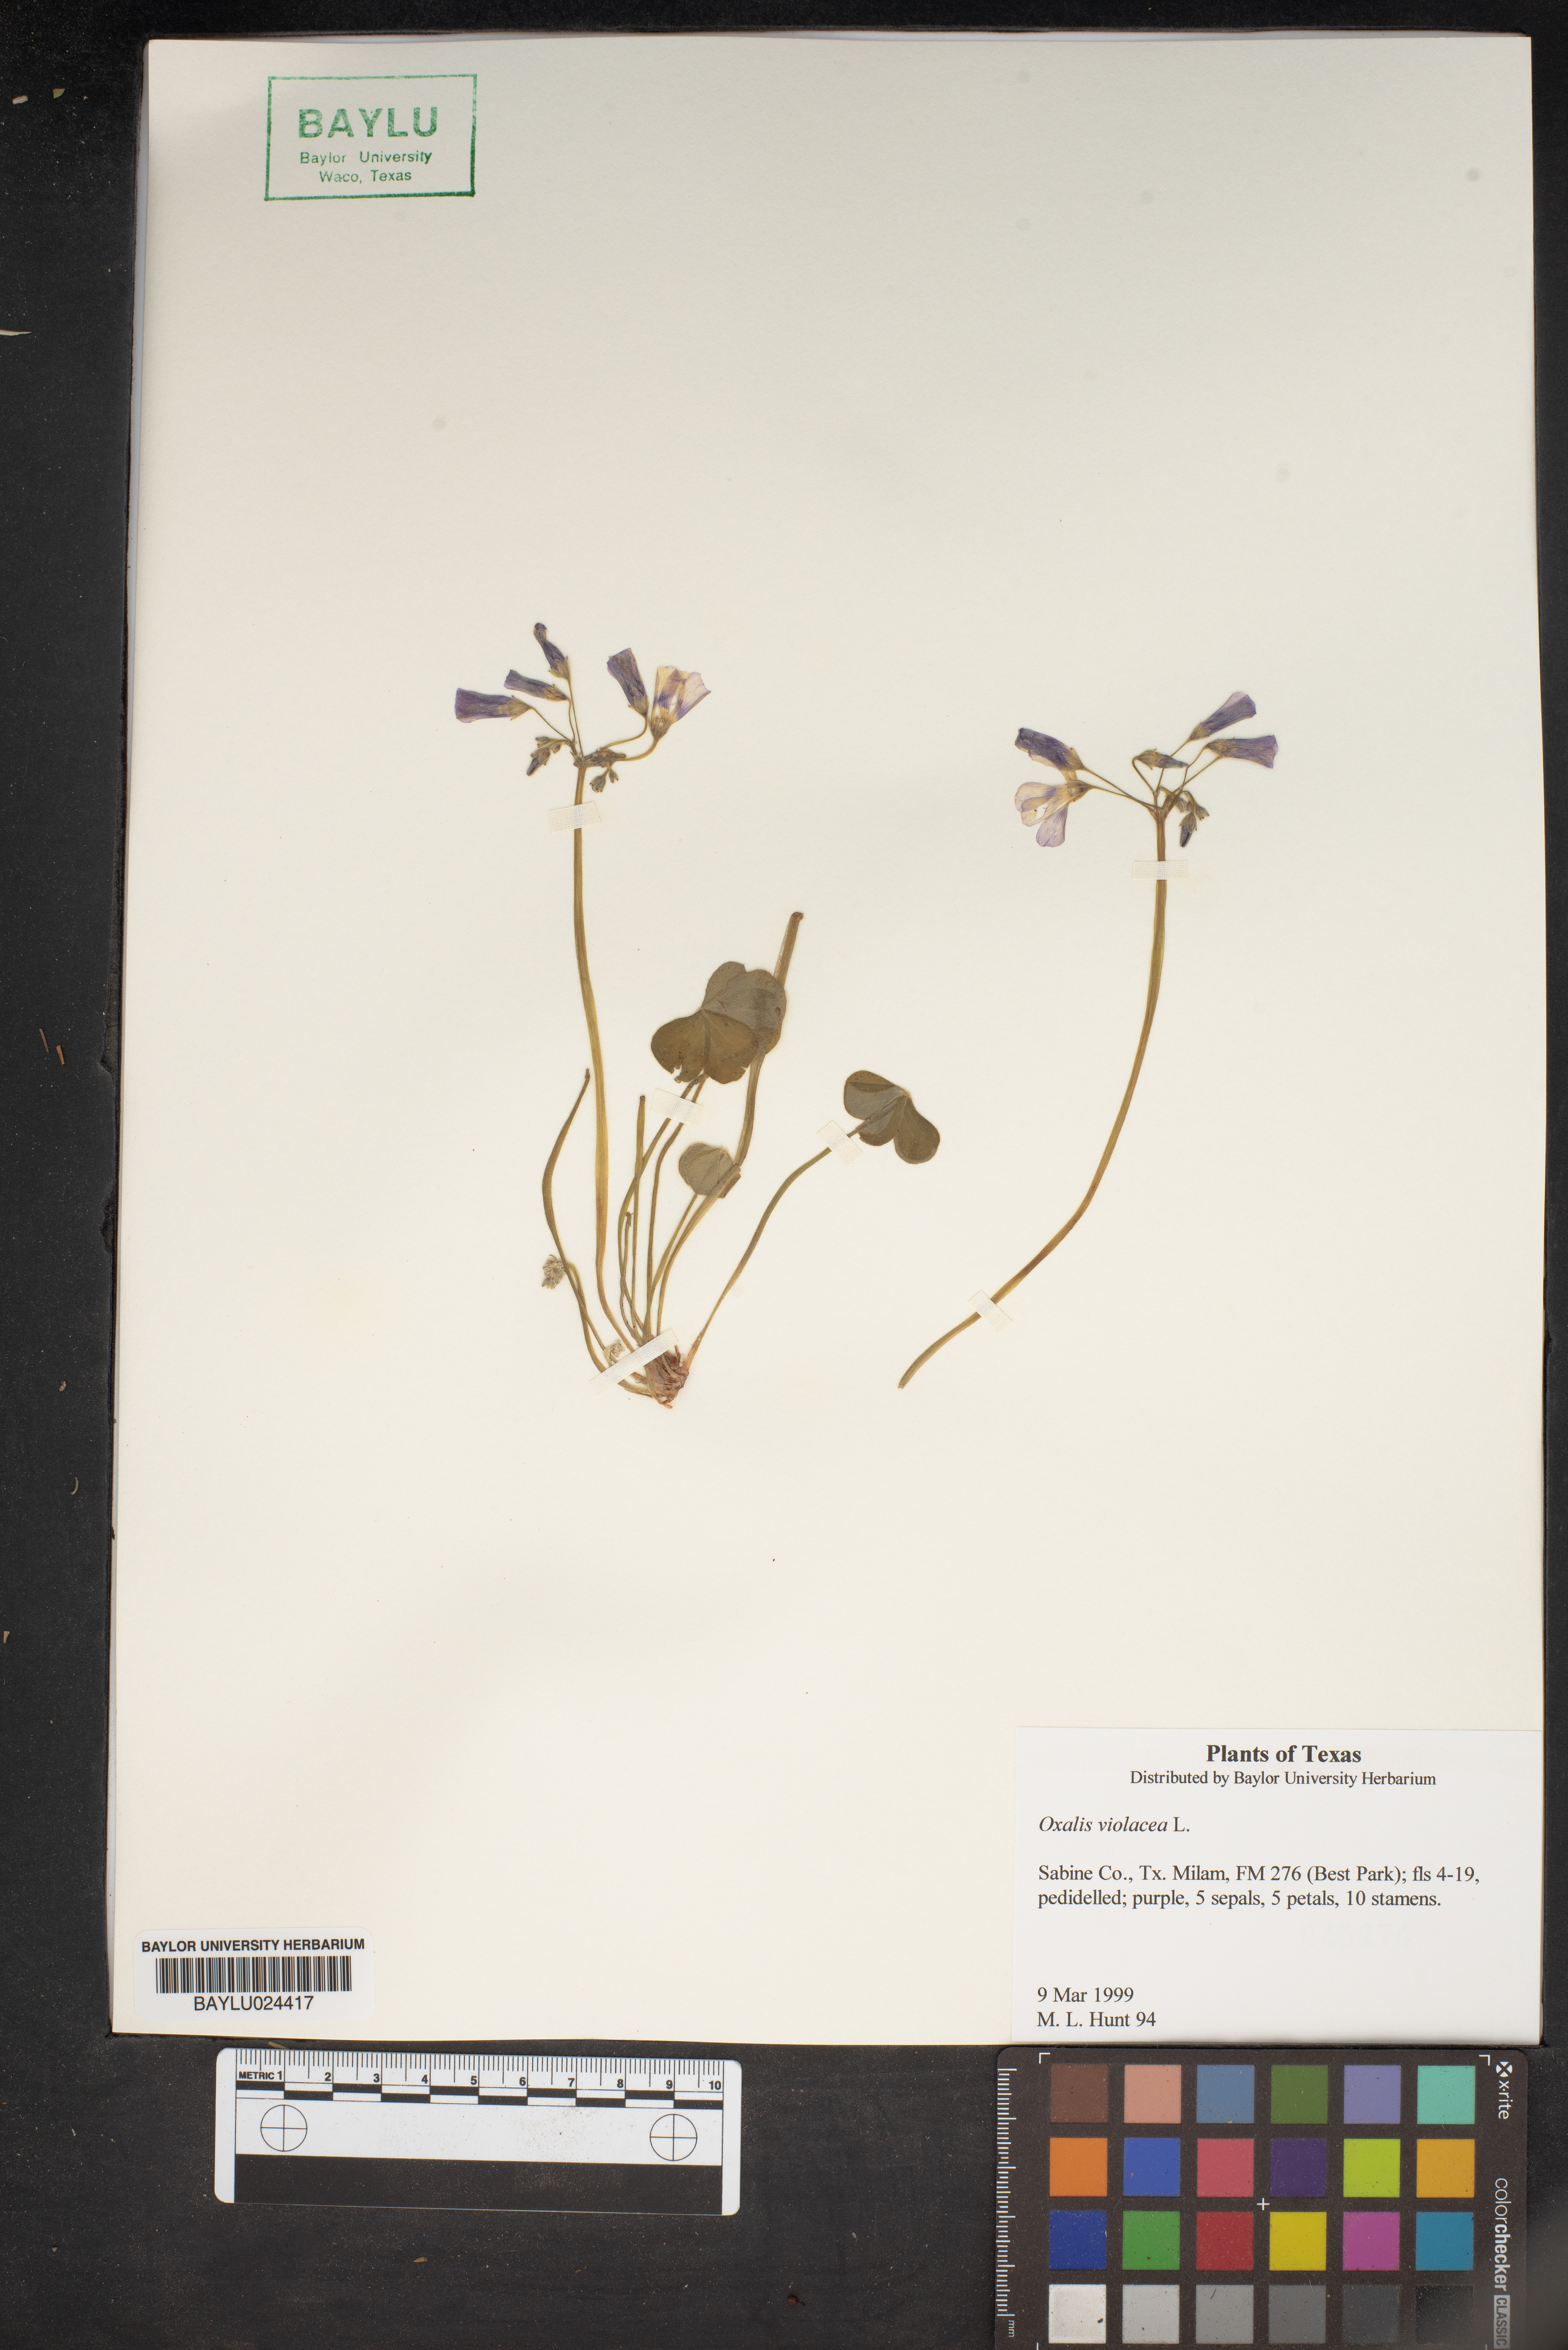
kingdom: Plantae
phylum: Tracheophyta
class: Magnoliopsida
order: Oxalidales
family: Oxalidaceae
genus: Oxalis
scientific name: Oxalis violacea
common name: Violet wood-sorrel
